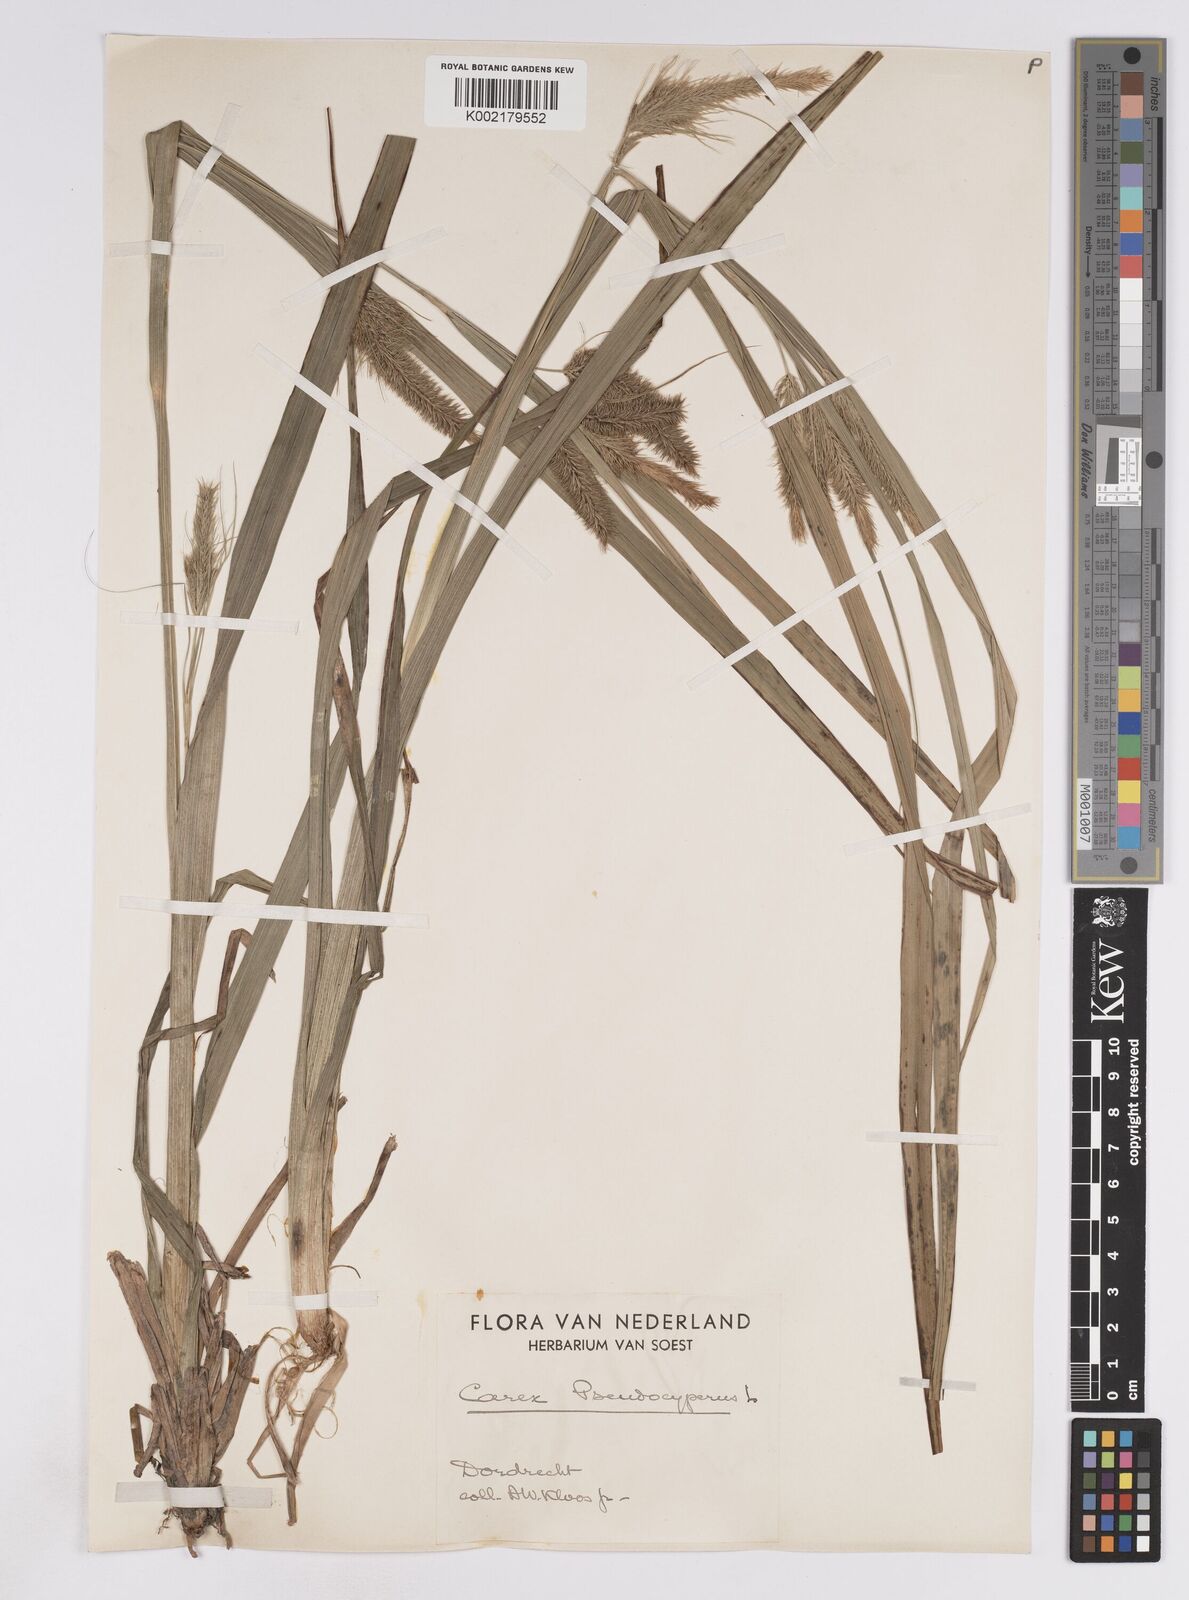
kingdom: Plantae
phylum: Tracheophyta
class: Liliopsida
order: Poales
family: Cyperaceae
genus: Carex
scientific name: Carex pseudocyperus
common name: Cyperus sedge
